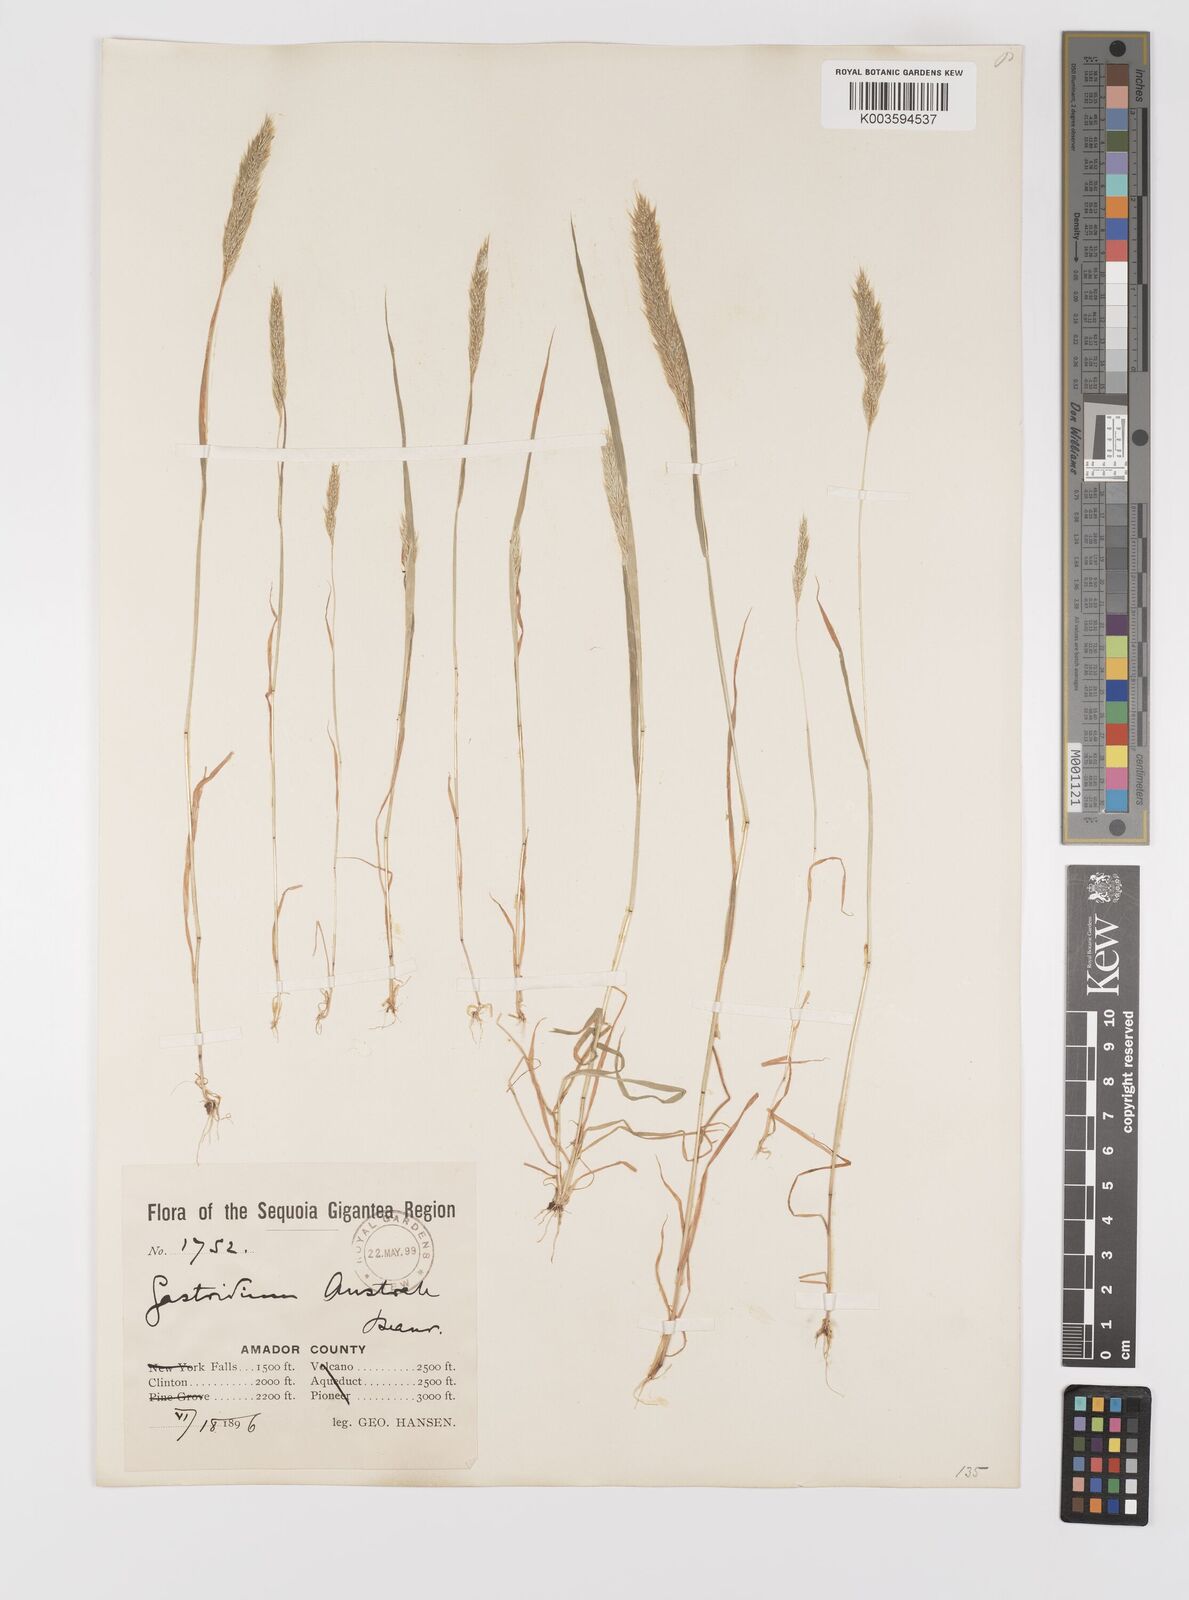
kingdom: Plantae
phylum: Tracheophyta
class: Liliopsida
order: Poales
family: Poaceae
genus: Gastridium
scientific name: Gastridium phleoides
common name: Nit grass
